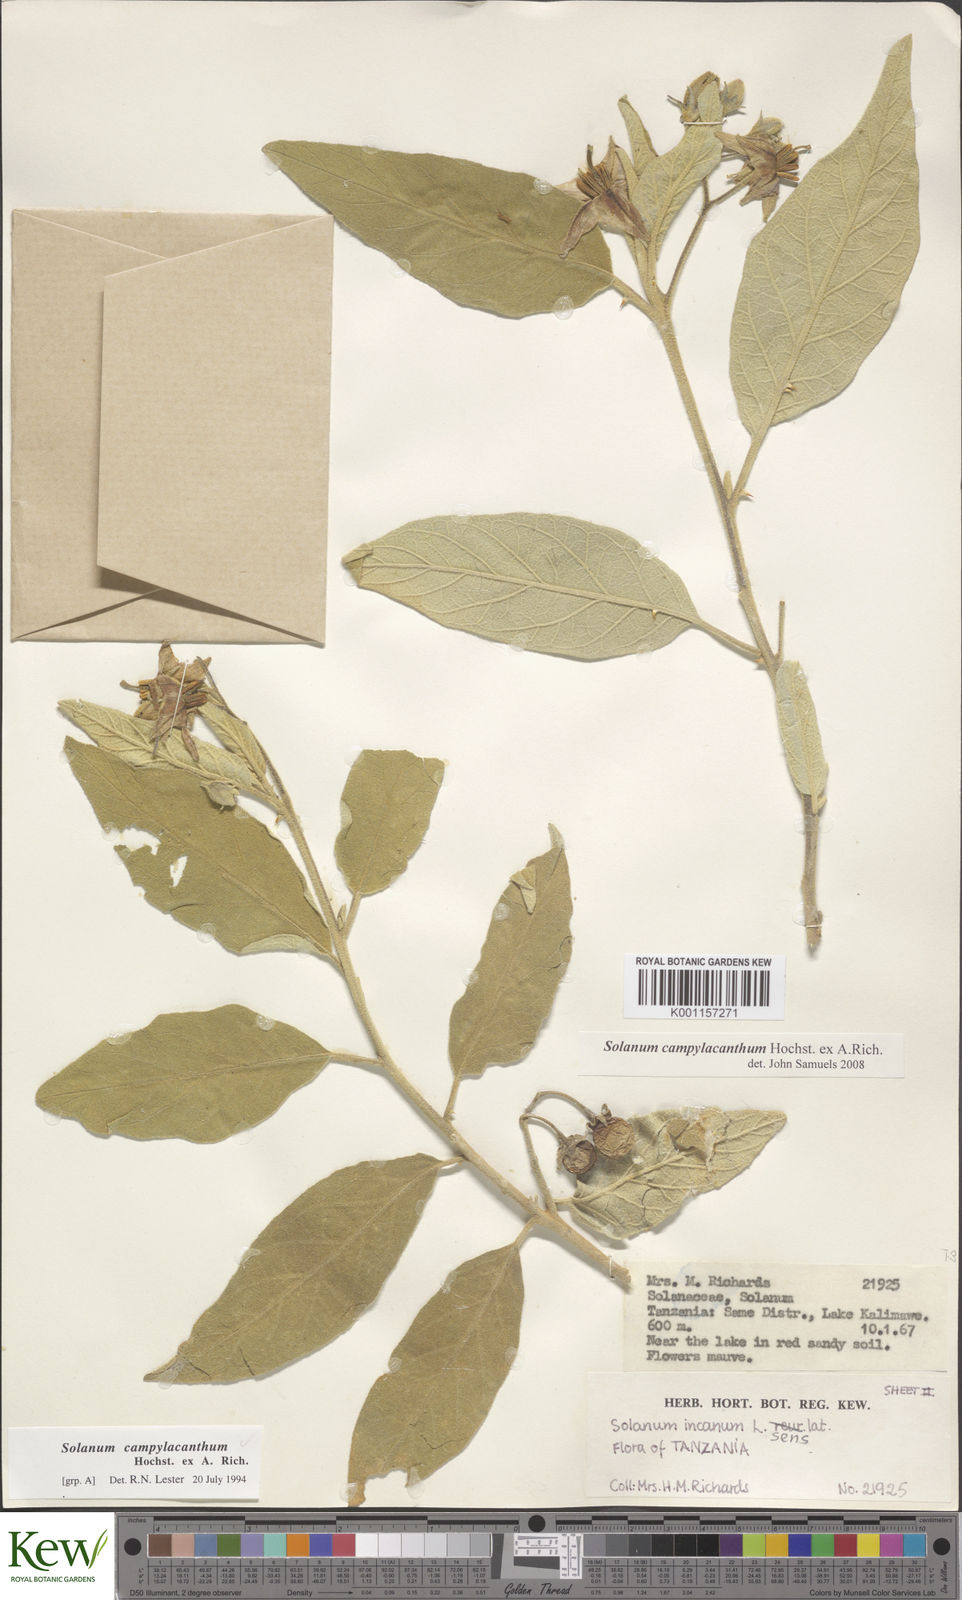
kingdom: Plantae
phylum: Tracheophyta
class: Magnoliopsida
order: Solanales
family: Solanaceae
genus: Solanum
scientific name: Solanum campylacanthum
